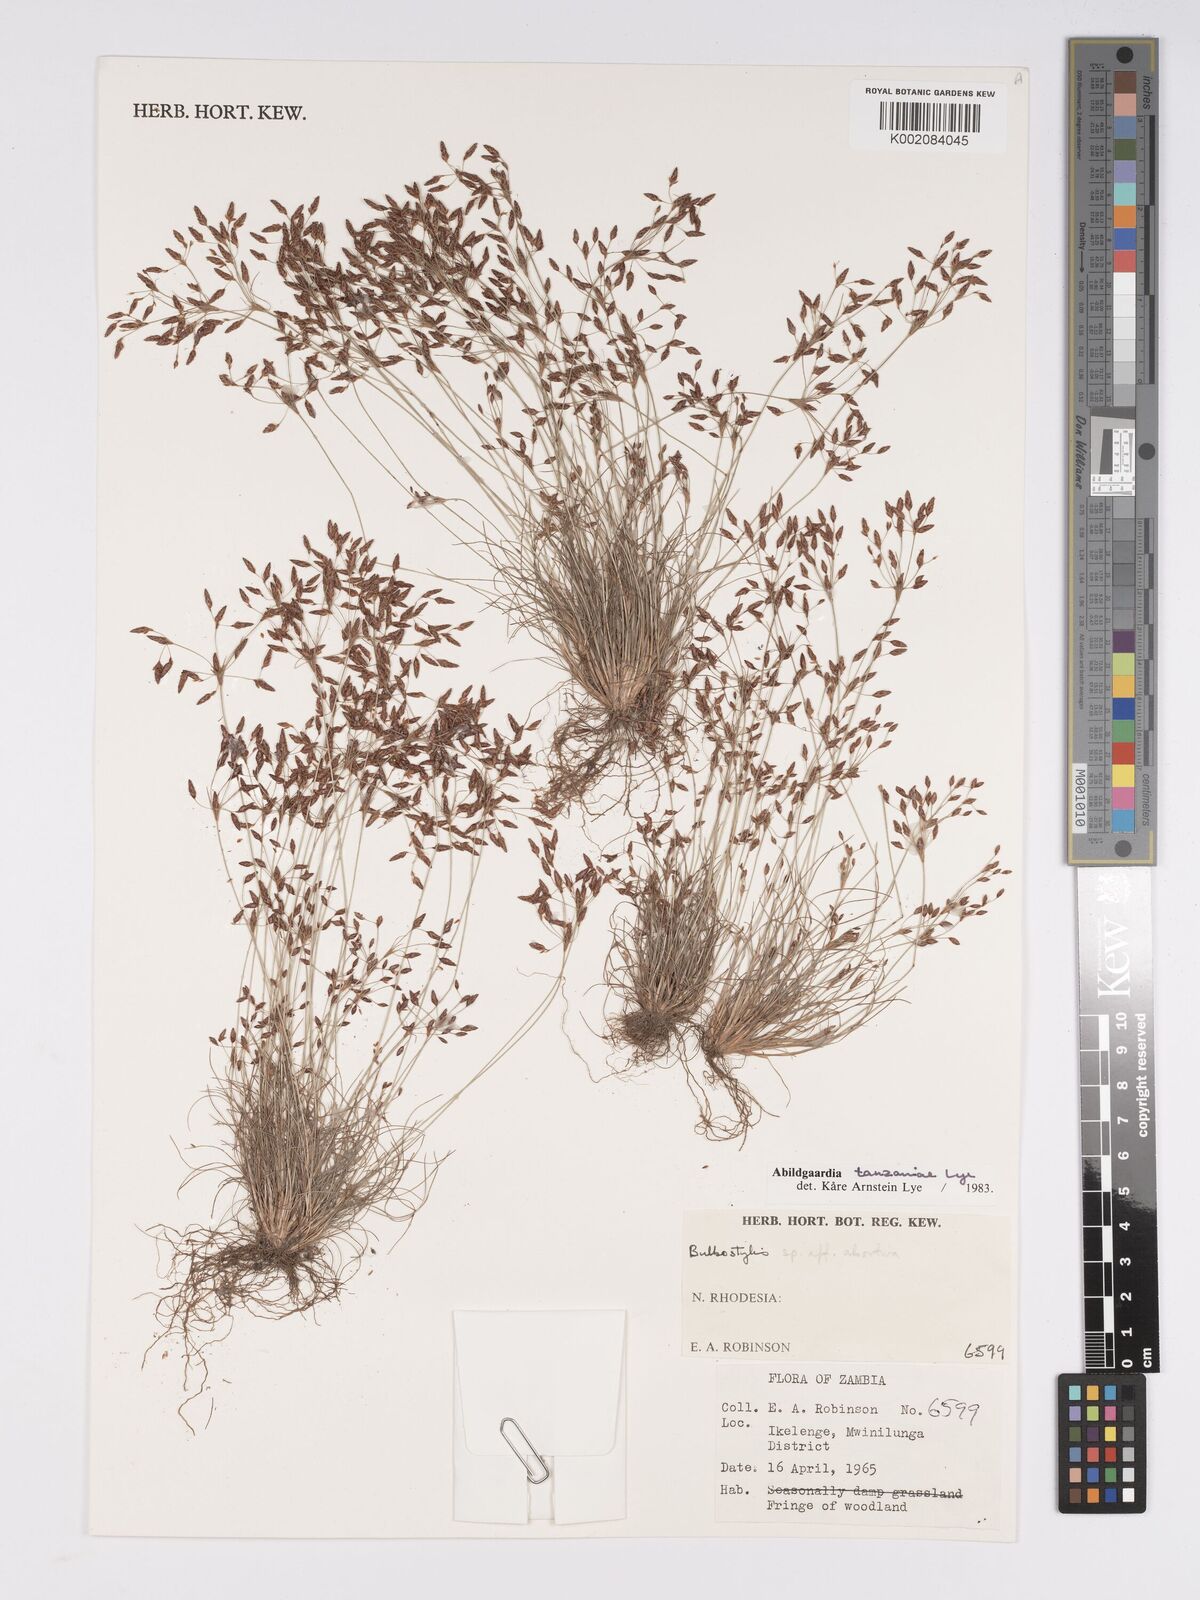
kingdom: Plantae
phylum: Tracheophyta
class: Liliopsida
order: Poales
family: Cyperaceae
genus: Bulbostylis
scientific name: Bulbostylis tanzaniae
